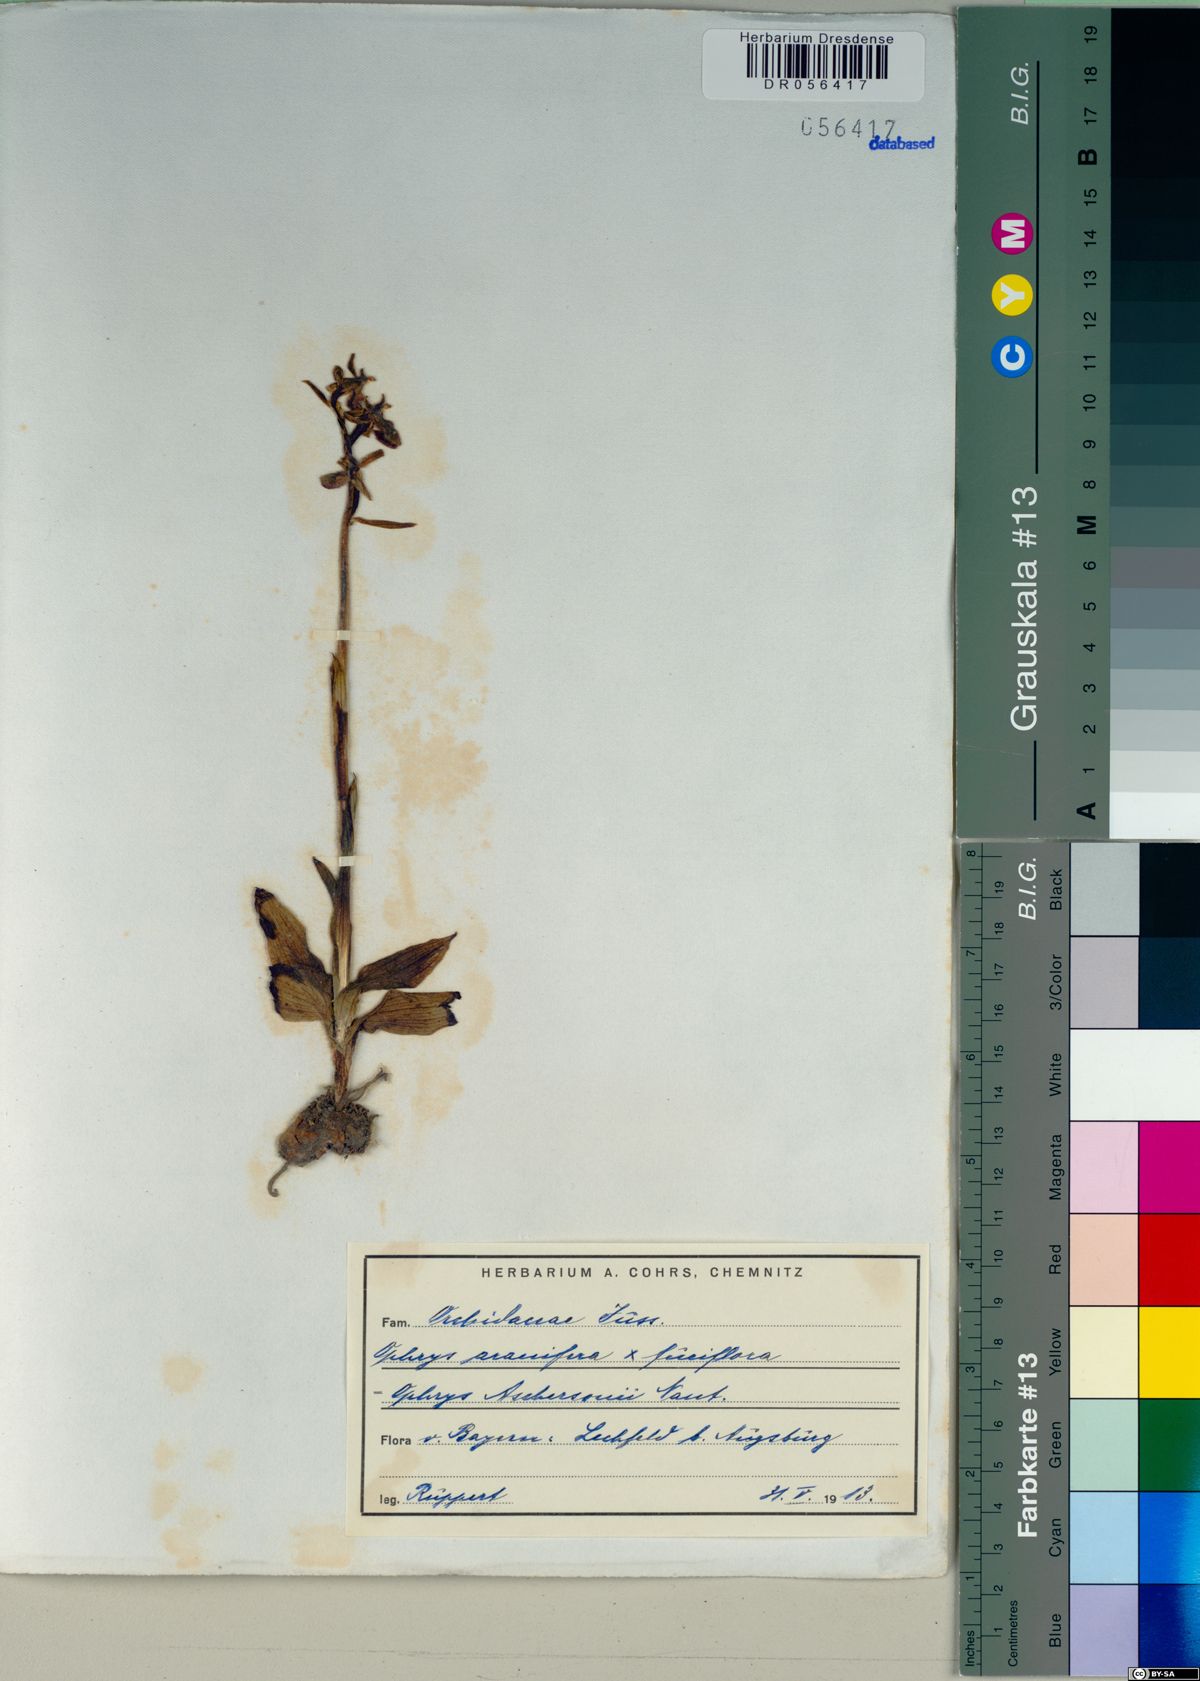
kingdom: Plantae
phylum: Tracheophyta
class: Liliopsida
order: Asparagales
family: Orchidaceae
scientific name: Orchidaceae
